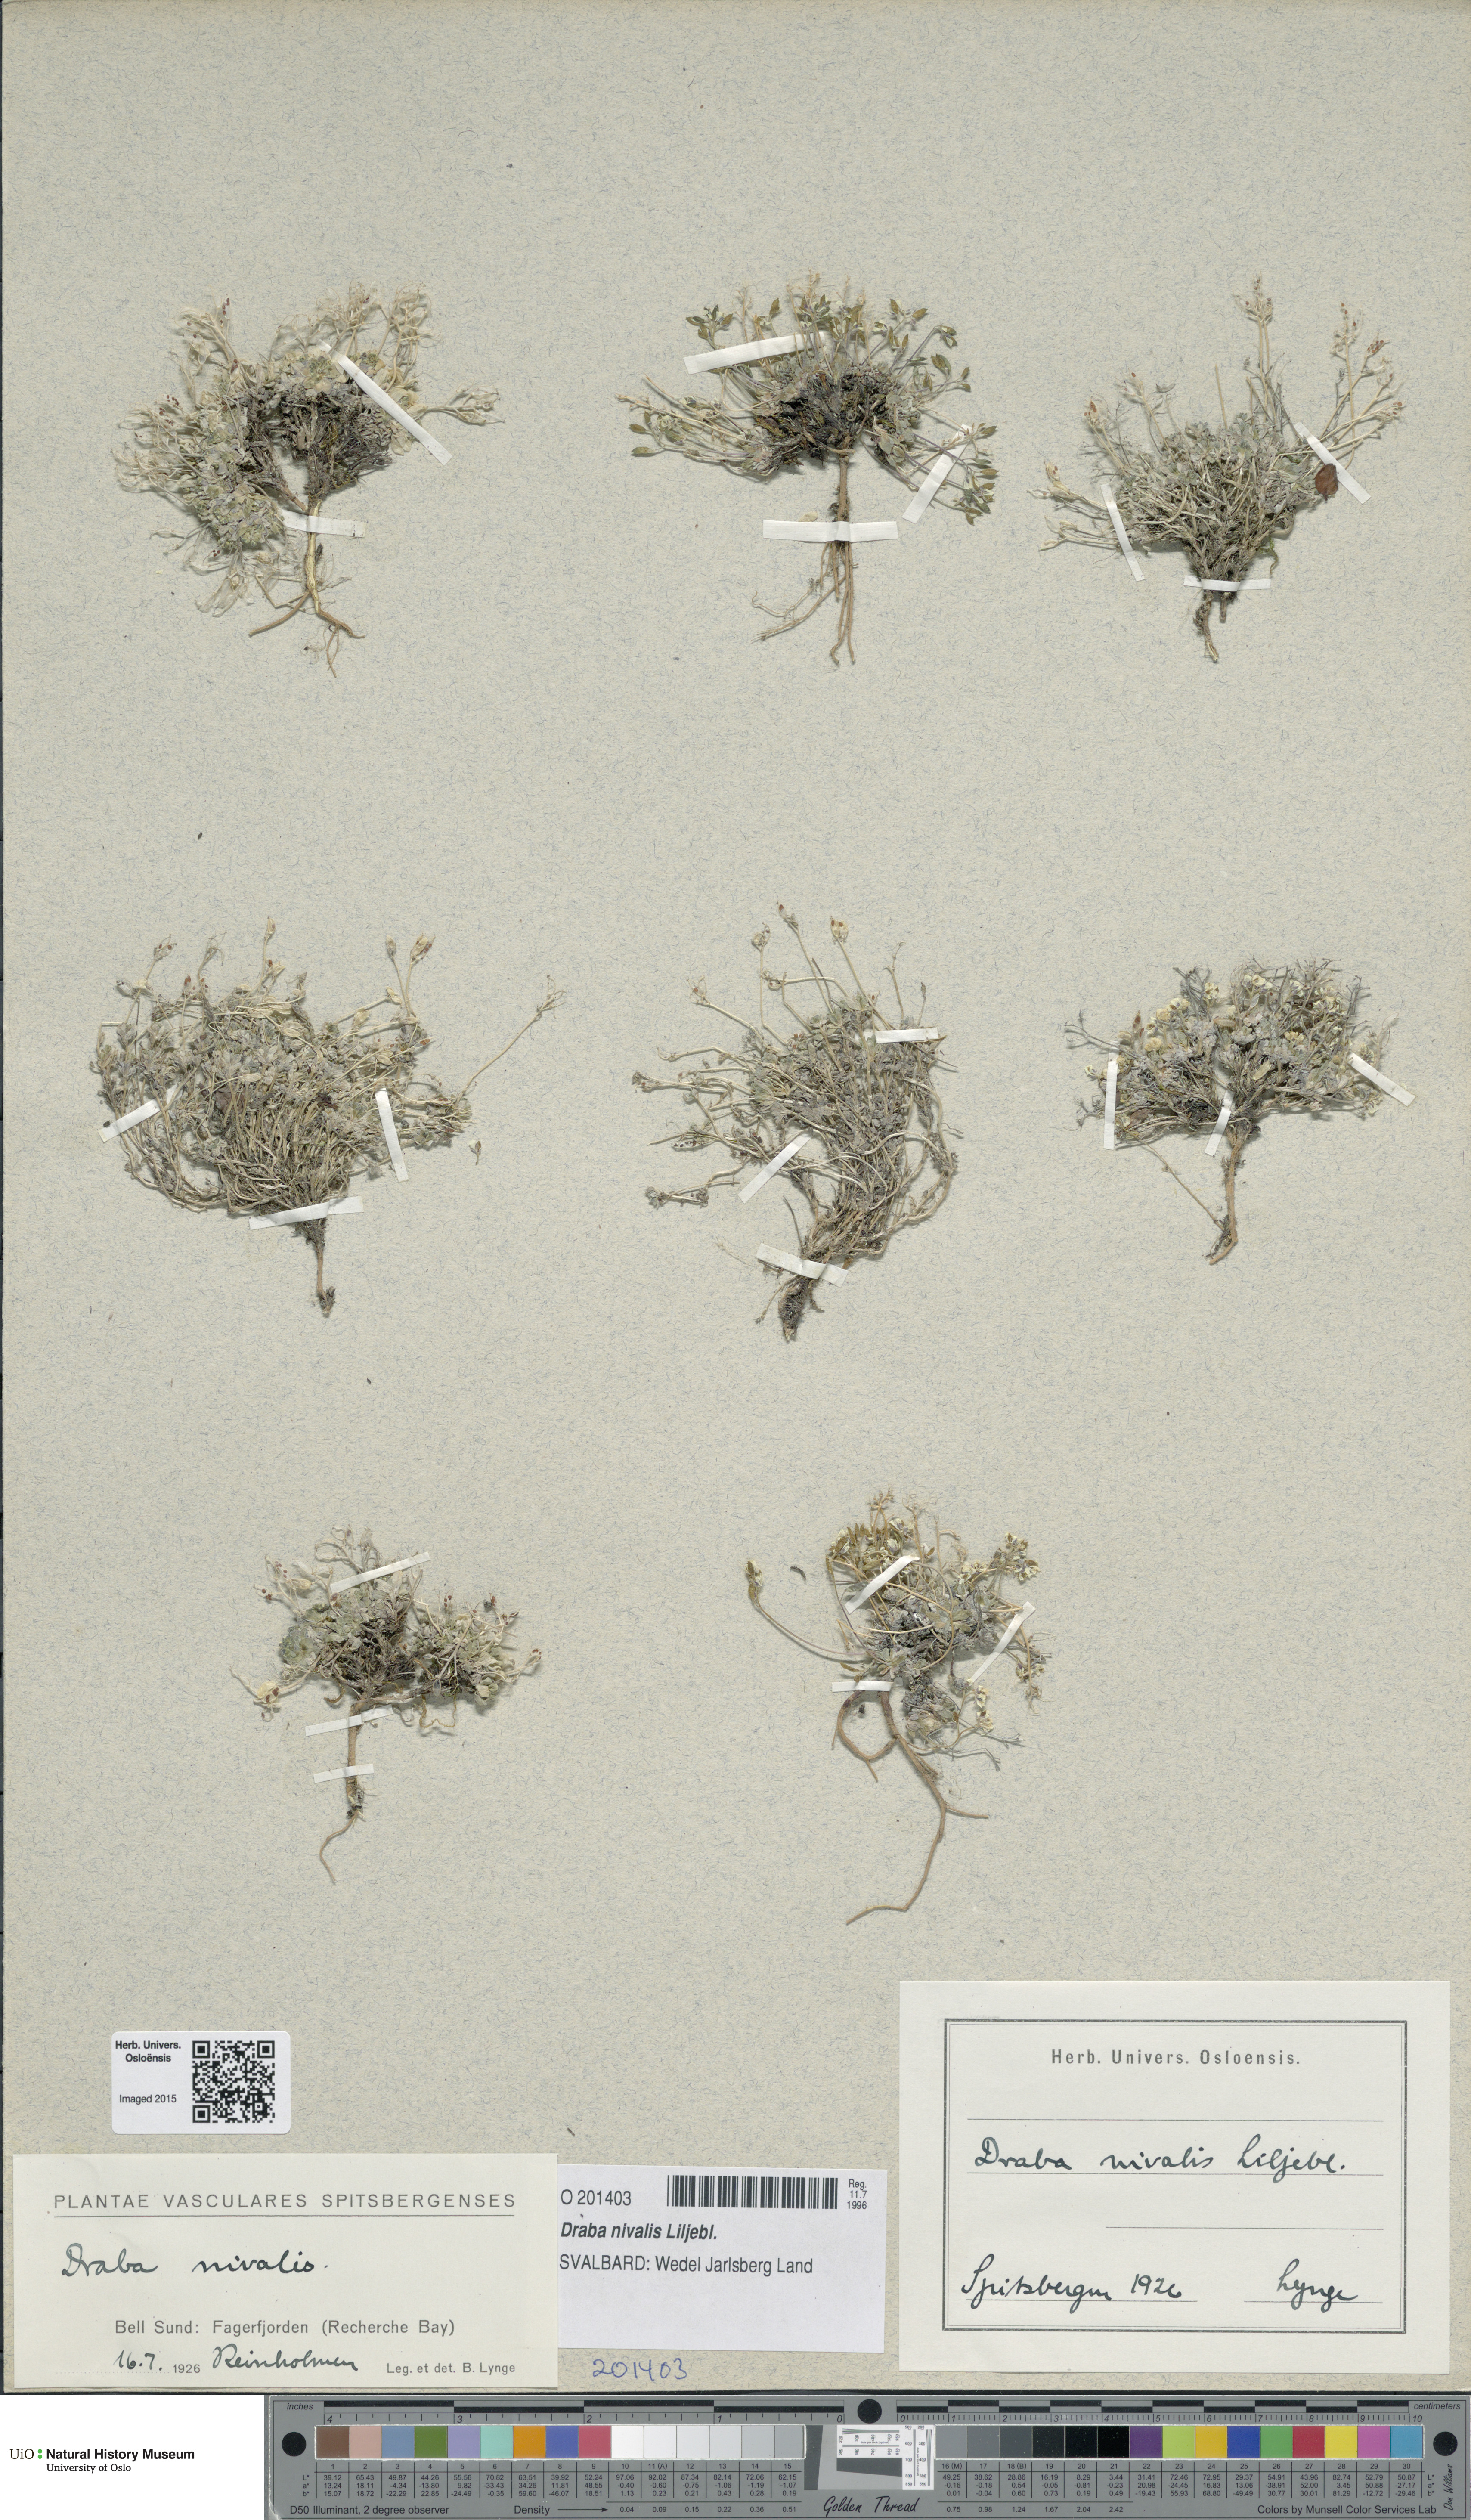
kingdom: Plantae
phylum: Tracheophyta
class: Magnoliopsida
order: Brassicales
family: Brassicaceae
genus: Draba
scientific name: Draba nivalis
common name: Snow draba
